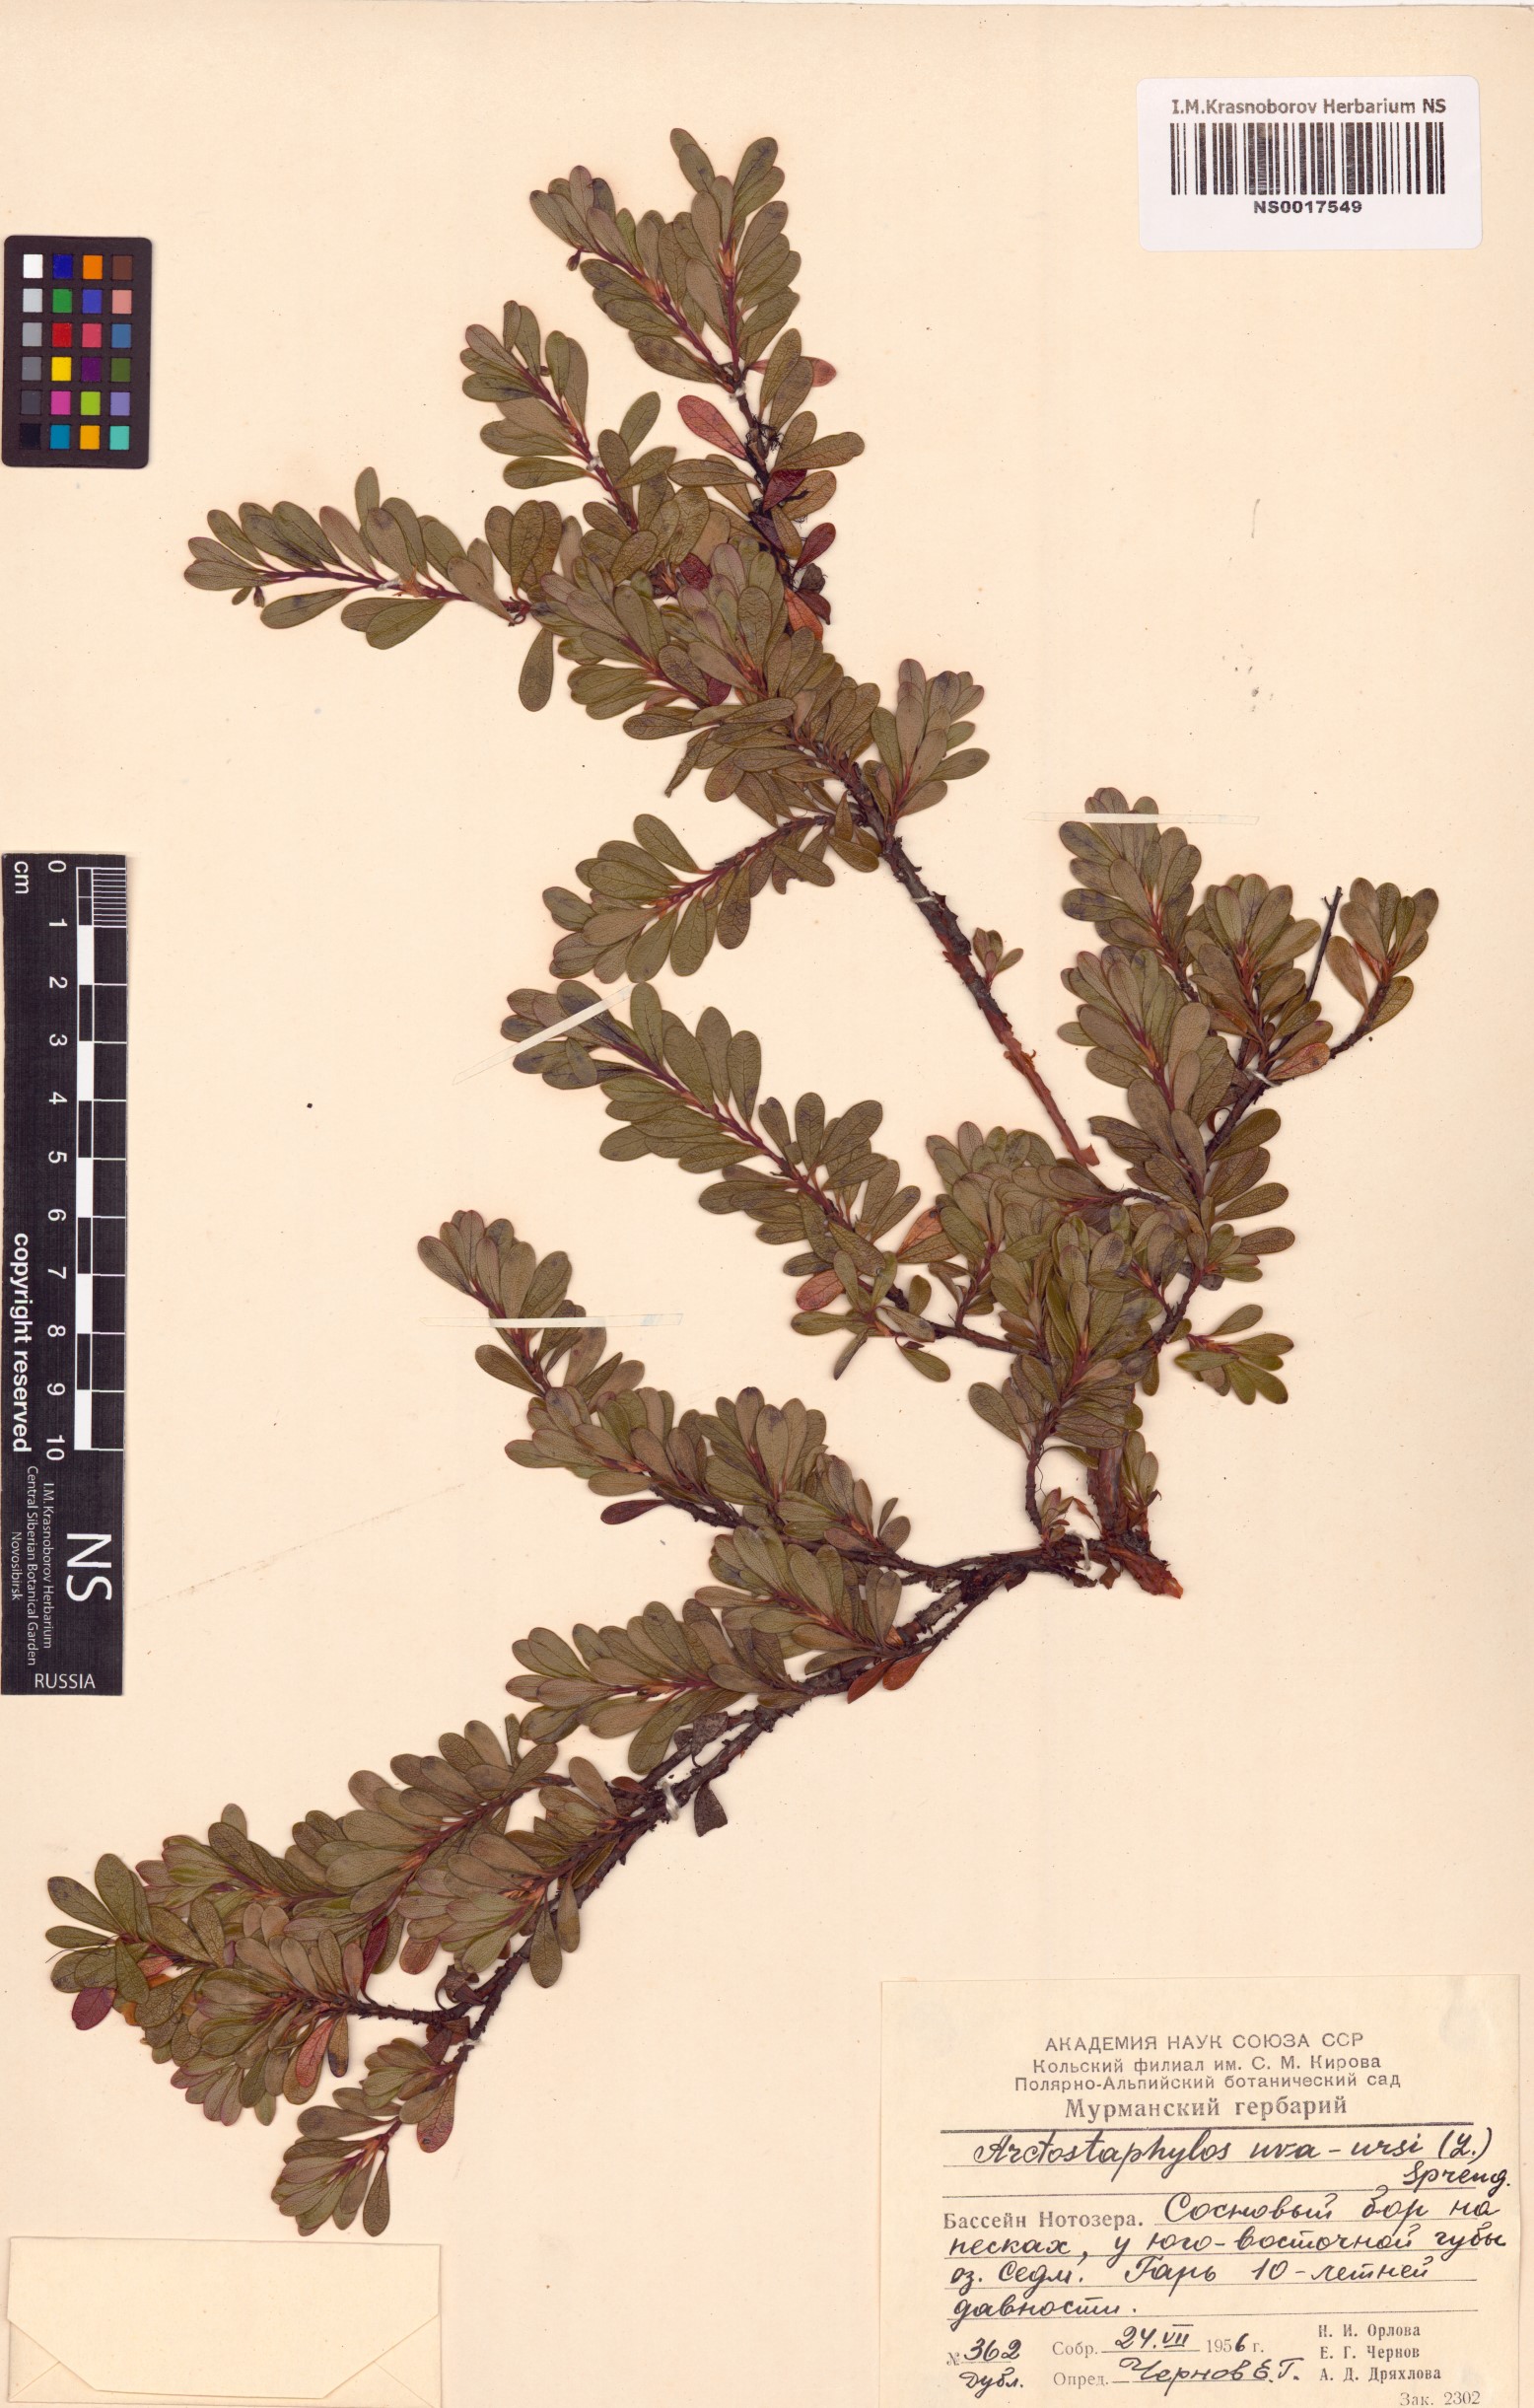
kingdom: Plantae
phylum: Tracheophyta
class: Magnoliopsida
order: Ericales
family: Ericaceae
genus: Arctostaphylos
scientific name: Arctostaphylos uva-ursi
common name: Bearberry
